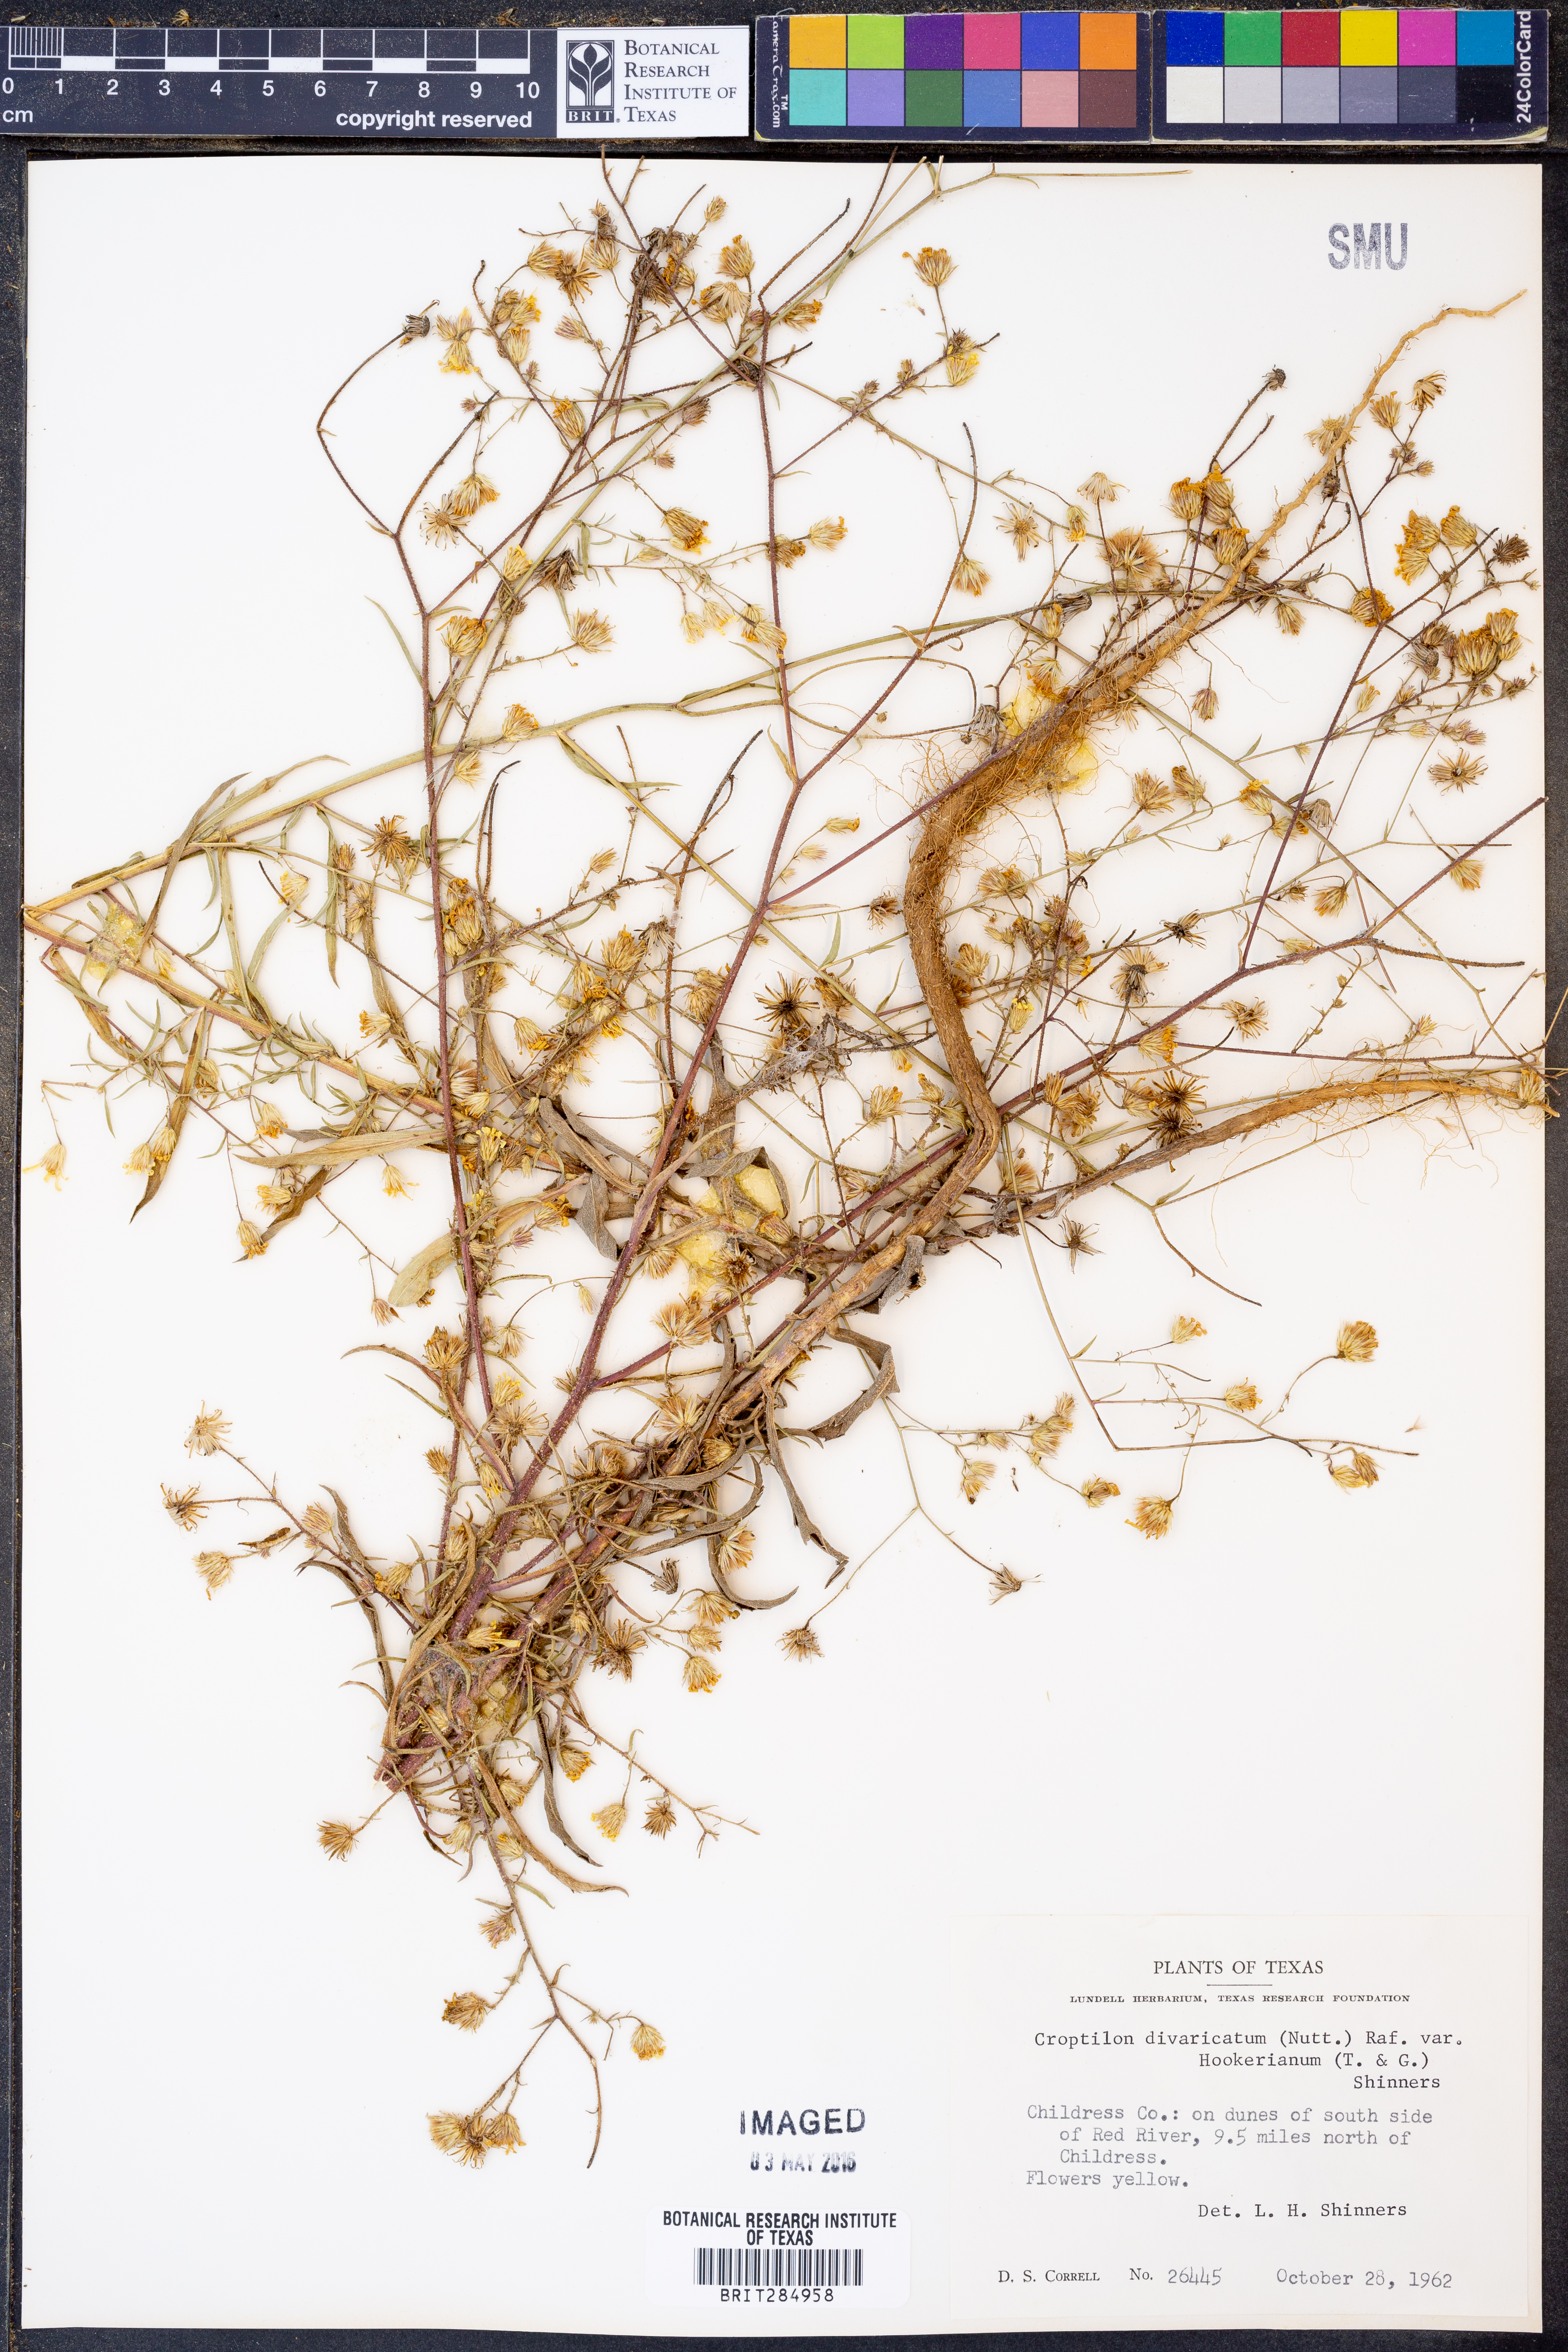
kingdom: Plantae
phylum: Tracheophyta
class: Magnoliopsida
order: Asterales
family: Asteraceae
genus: Croptilon
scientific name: Croptilon hookerianum
